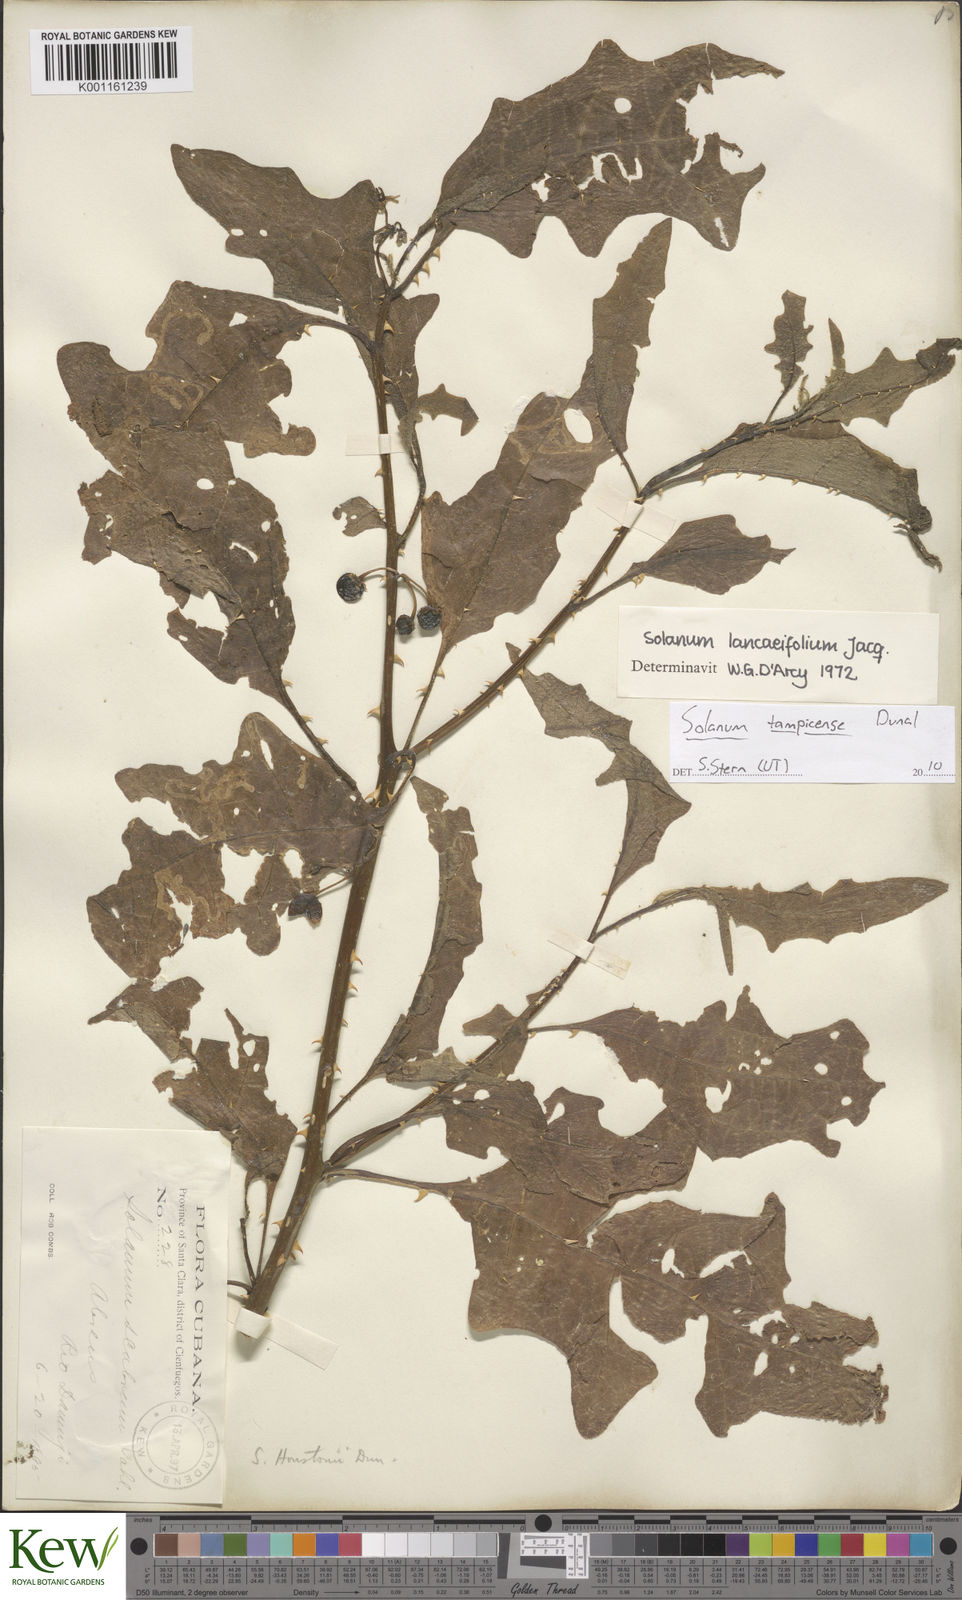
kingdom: Plantae
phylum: Tracheophyta
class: Magnoliopsida
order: Solanales
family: Solanaceae
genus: Solanum
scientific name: Solanum tampicense
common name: Scrambling nightshade
